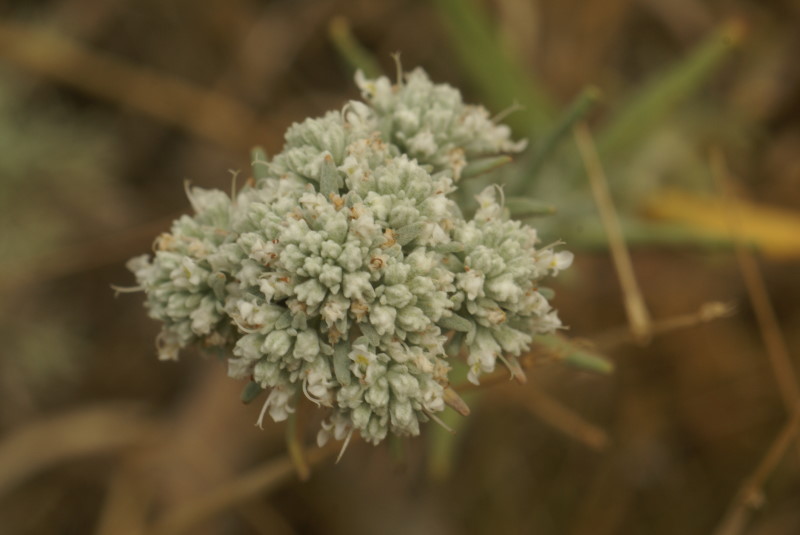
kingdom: Plantae
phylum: Tracheophyta
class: Magnoliopsida
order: Lamiales
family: Lamiaceae
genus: Teucrium
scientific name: Teucrium polium
